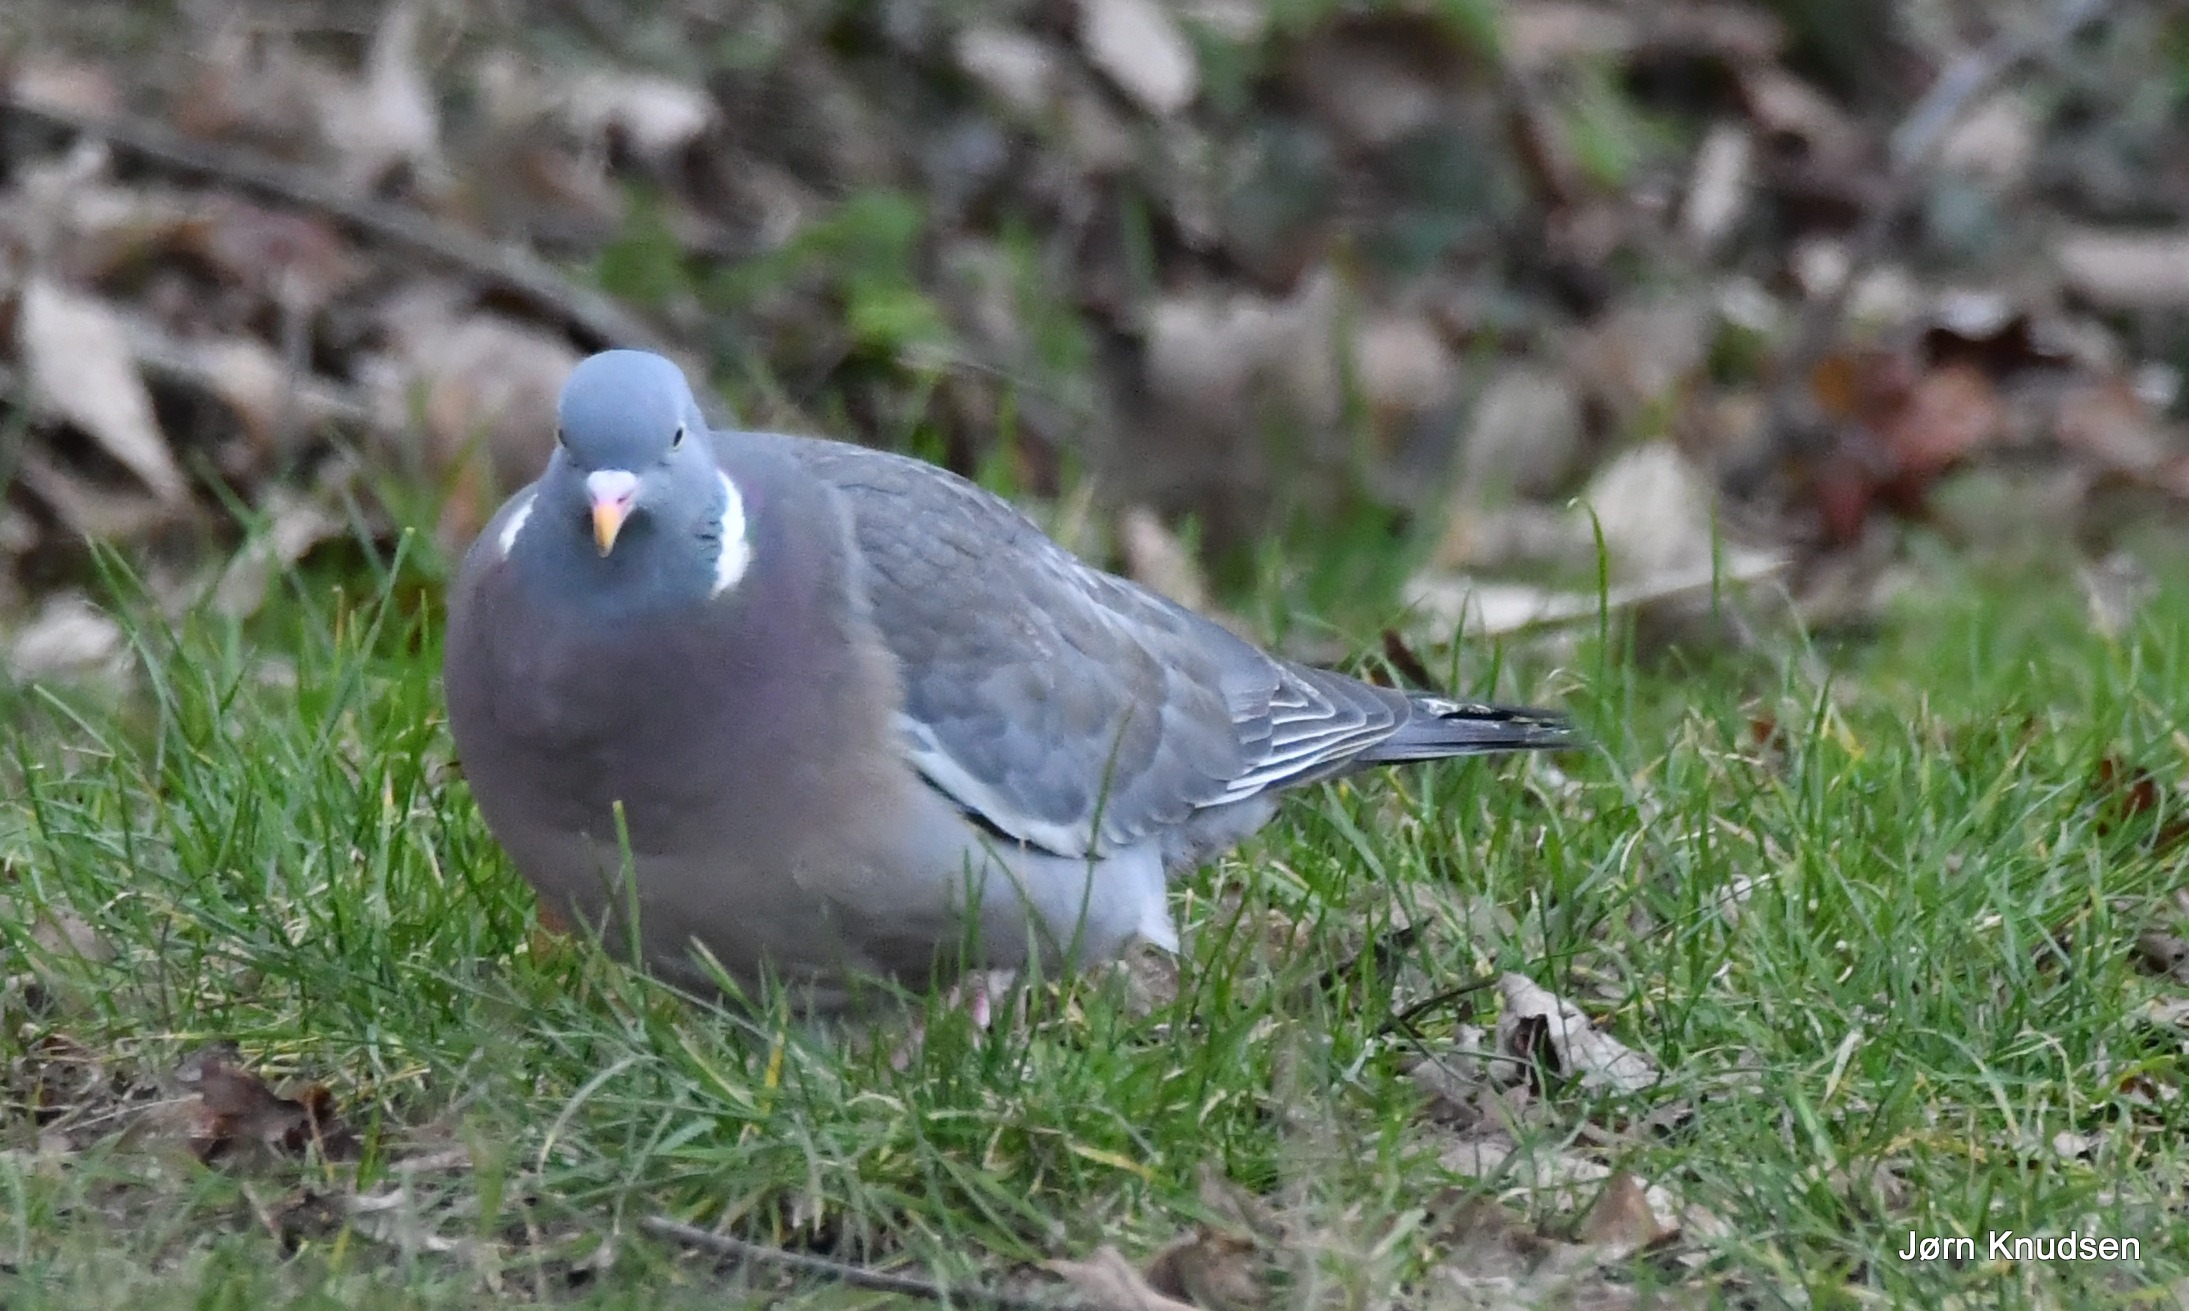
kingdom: Animalia
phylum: Chordata
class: Aves
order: Columbiformes
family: Columbidae
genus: Columba
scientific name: Columba palumbus
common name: Ringdue
